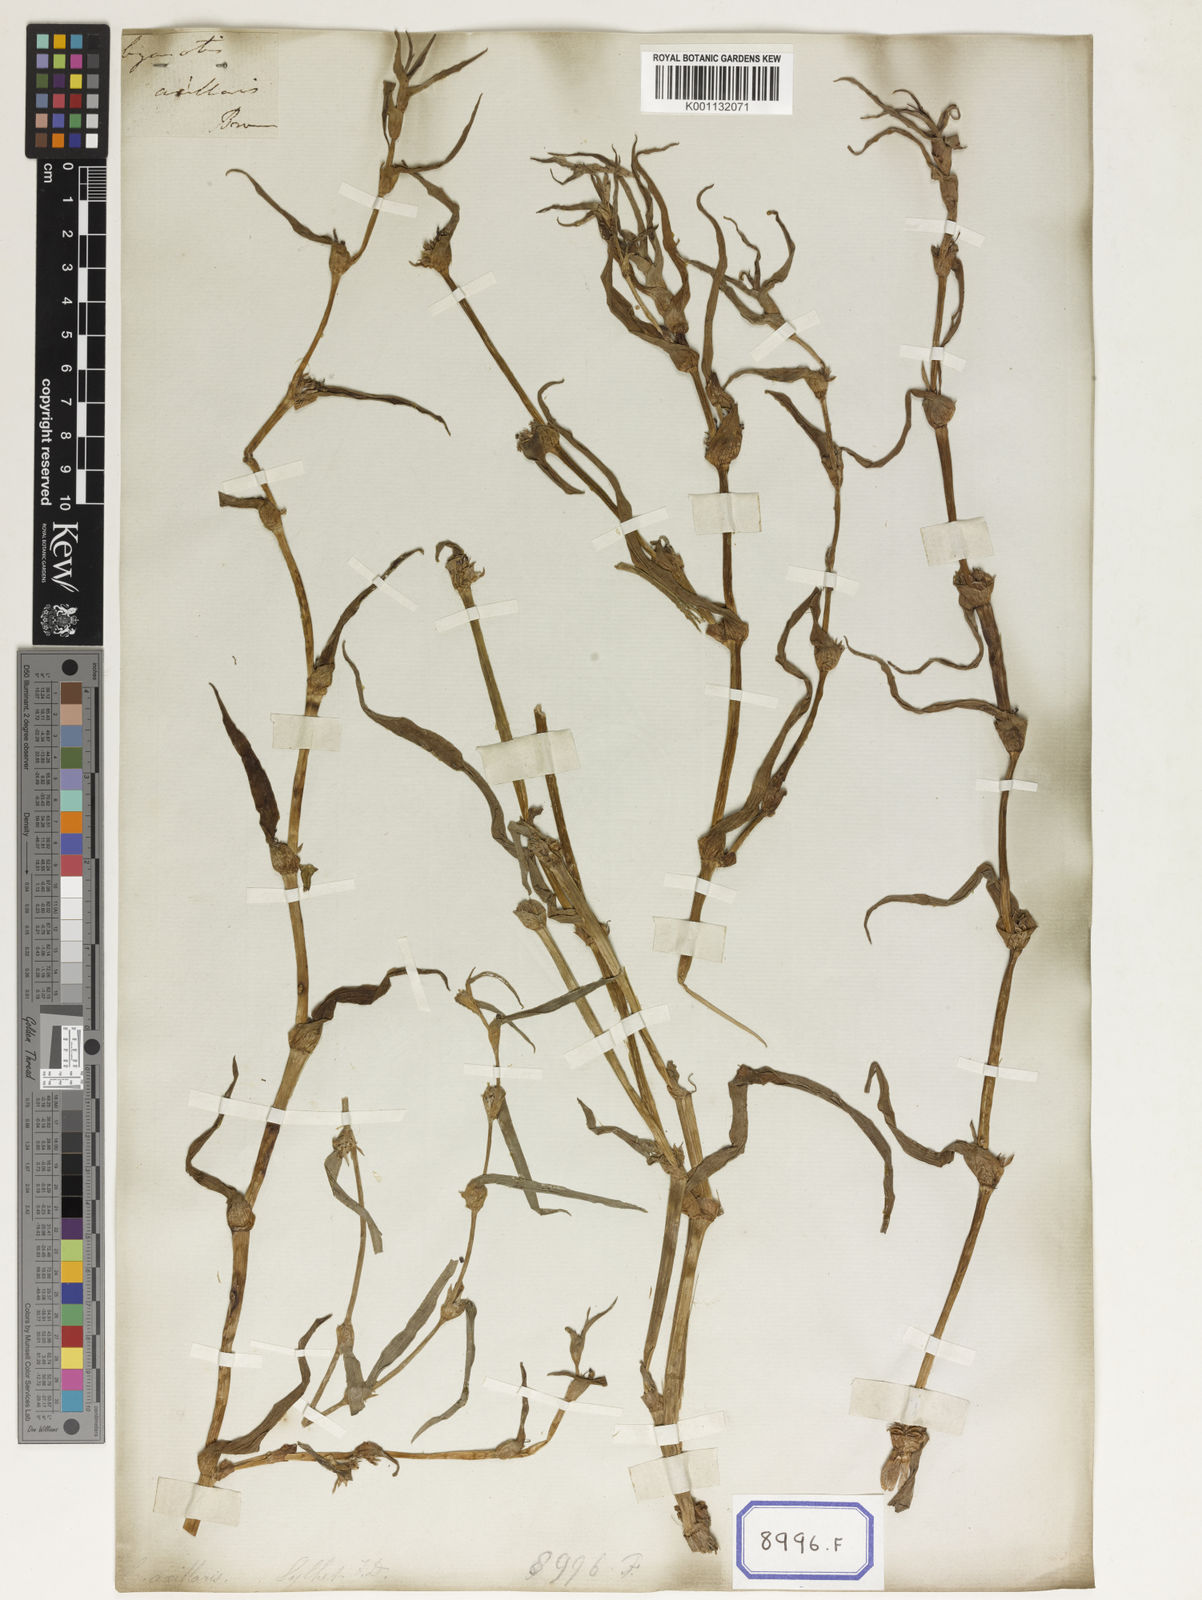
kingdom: Plantae
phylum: Tracheophyta
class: Liliopsida
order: Commelinales
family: Commelinaceae
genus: Cyanotis
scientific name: Cyanotis
